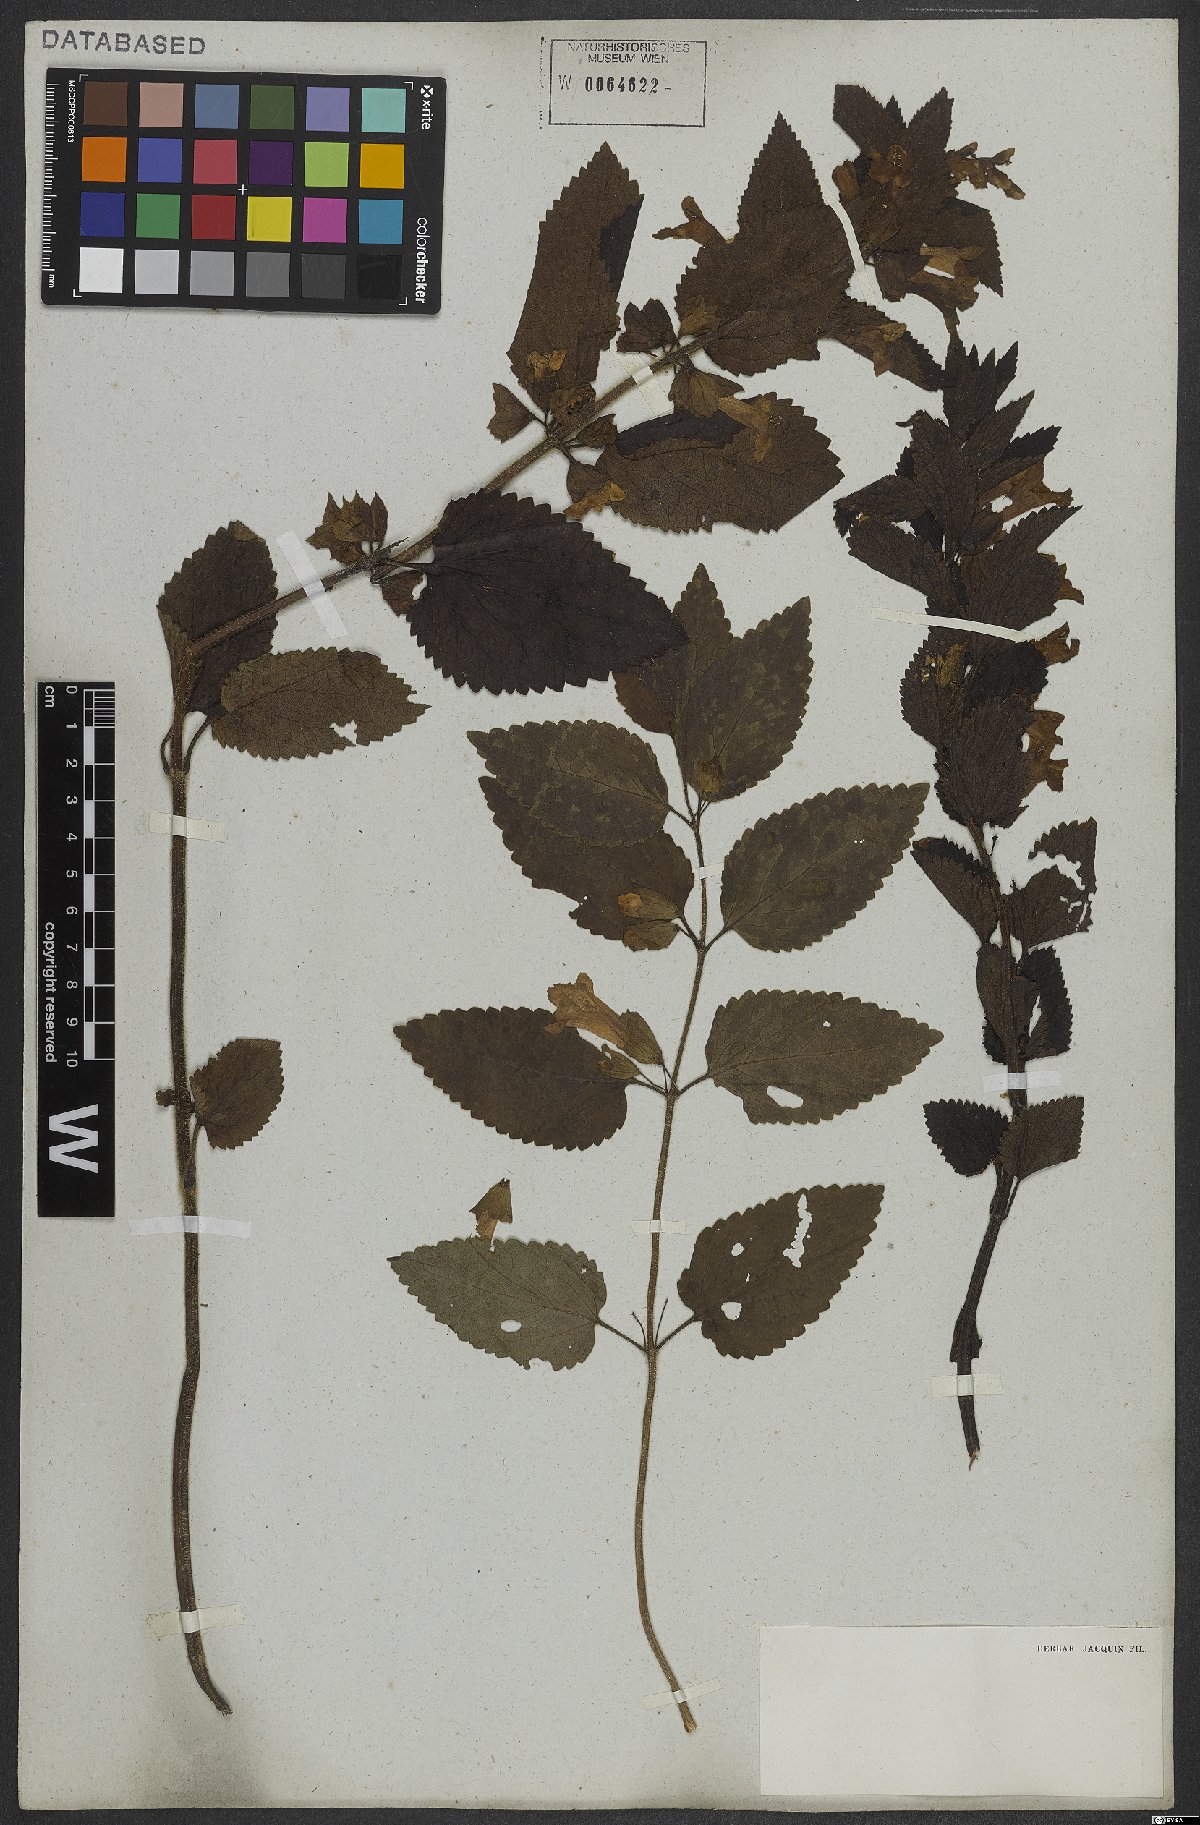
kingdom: Plantae
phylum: Tracheophyta
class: Magnoliopsida
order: Lamiales
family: Lamiaceae
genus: Melittis
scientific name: Melittis melissophyllum
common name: Bastard balm
